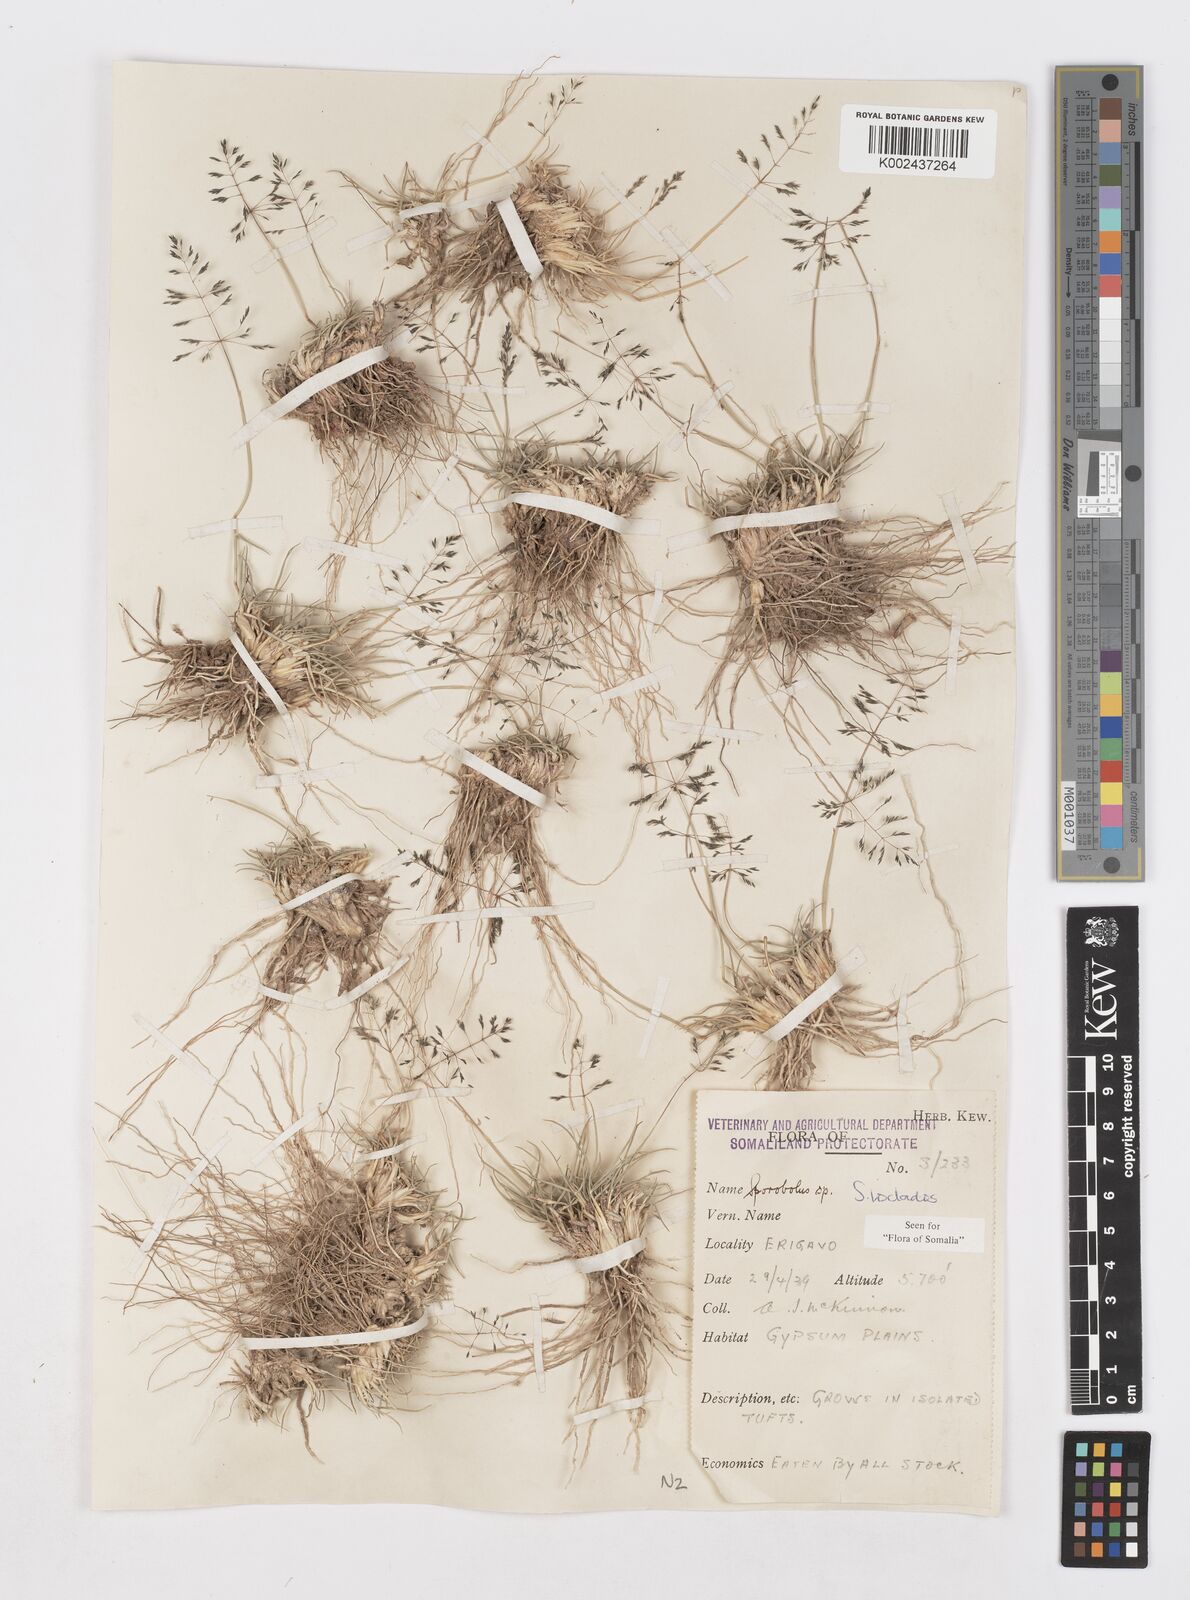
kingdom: Plantae
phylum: Tracheophyta
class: Liliopsida
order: Poales
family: Poaceae
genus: Sporobolus
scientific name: Sporobolus ioclados
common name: Pan dropseed
